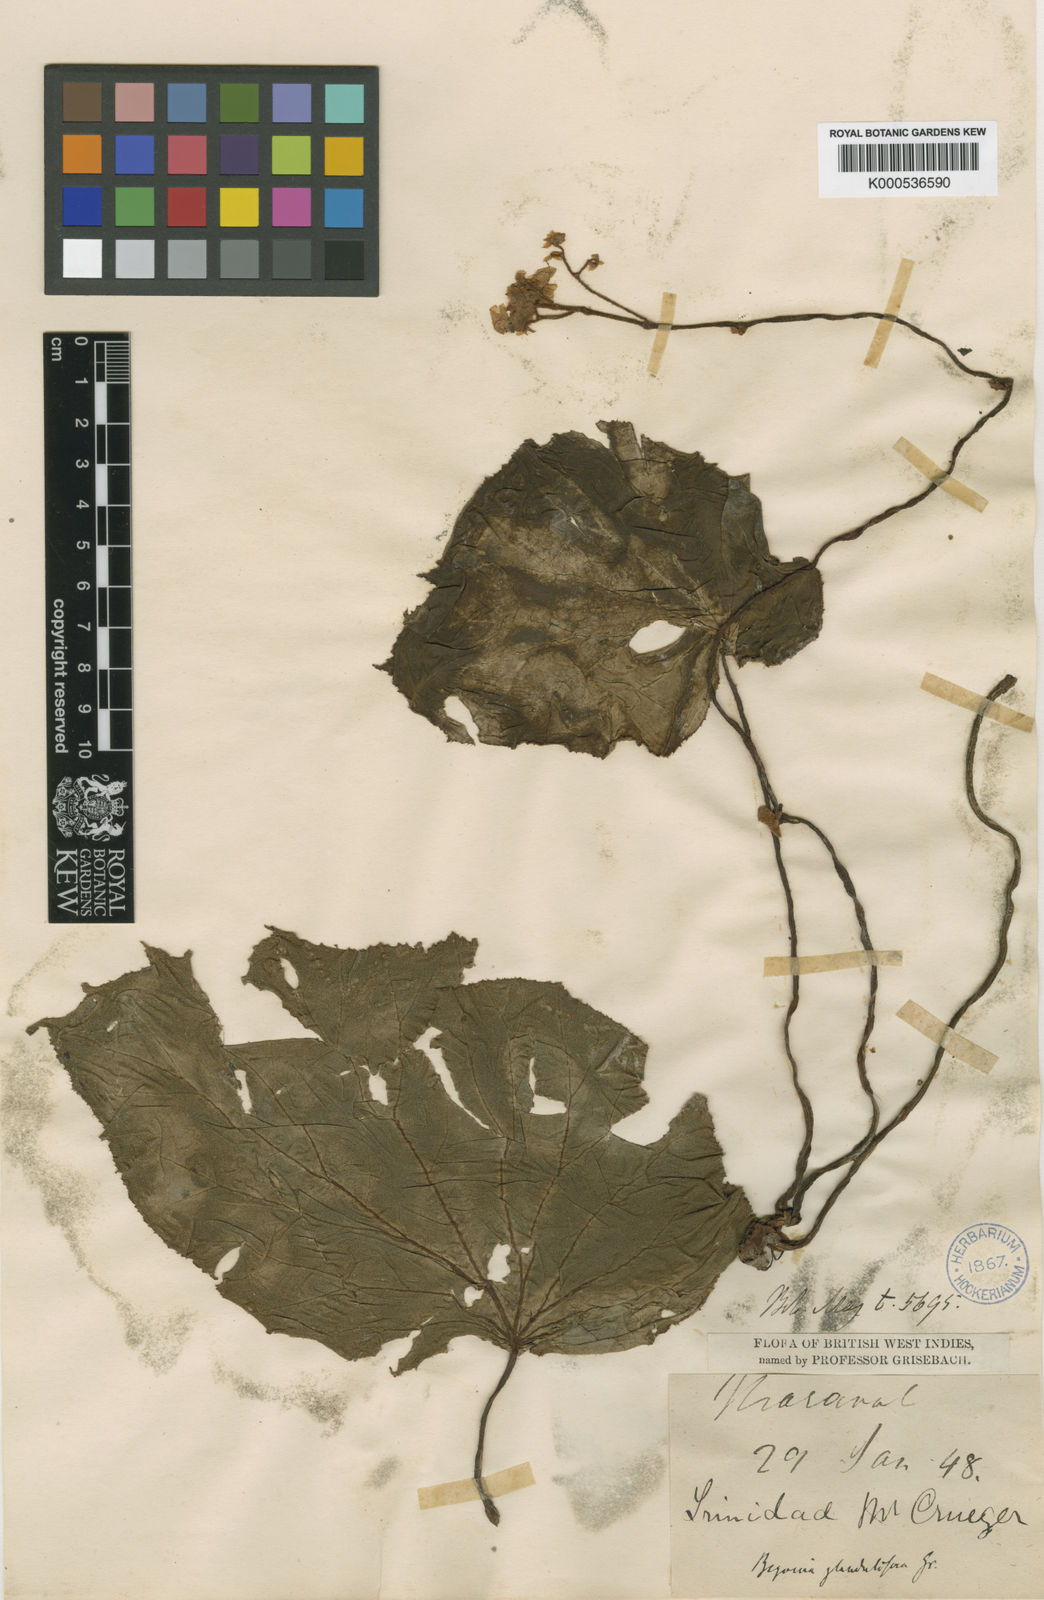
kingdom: Plantae
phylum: Tracheophyta
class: Magnoliopsida
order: Cucurbitales
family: Begoniaceae
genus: Begonia
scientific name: Begonia glandulifera
